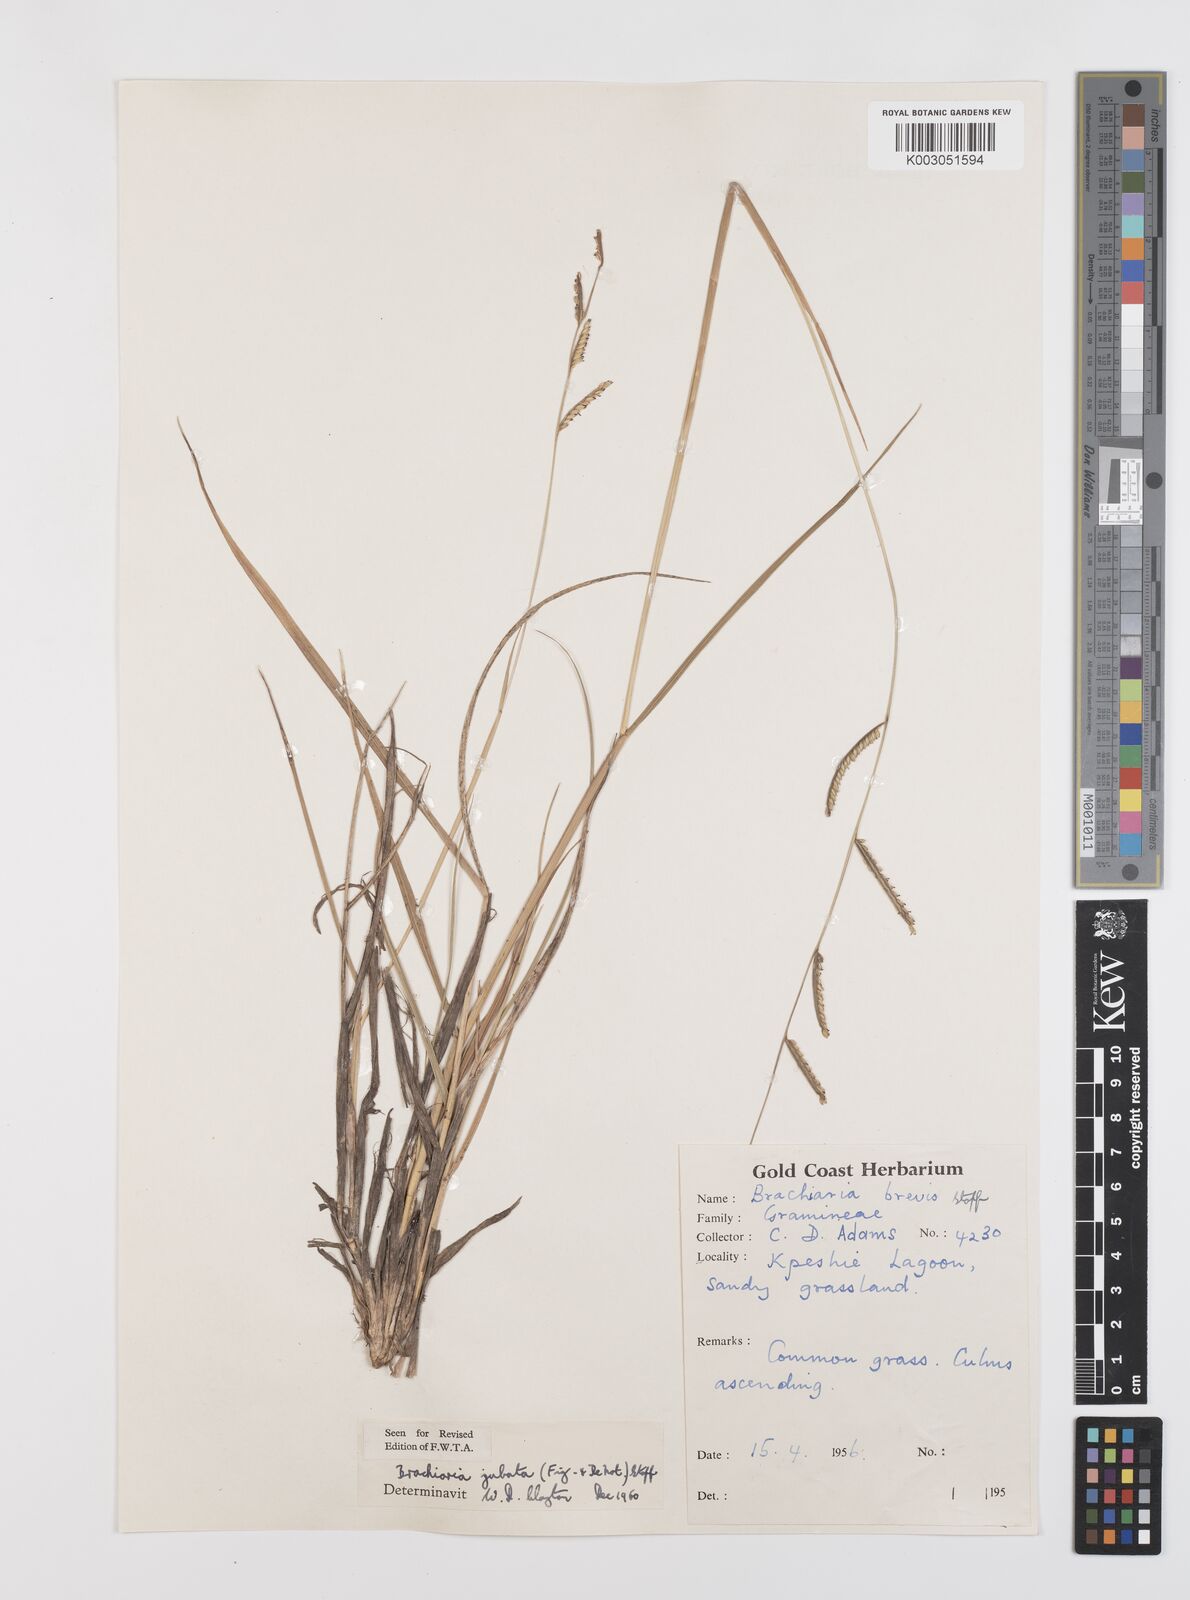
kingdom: Plantae
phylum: Tracheophyta
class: Liliopsida
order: Poales
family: Poaceae
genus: Urochloa
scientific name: Urochloa jubata
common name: Buffalograss
